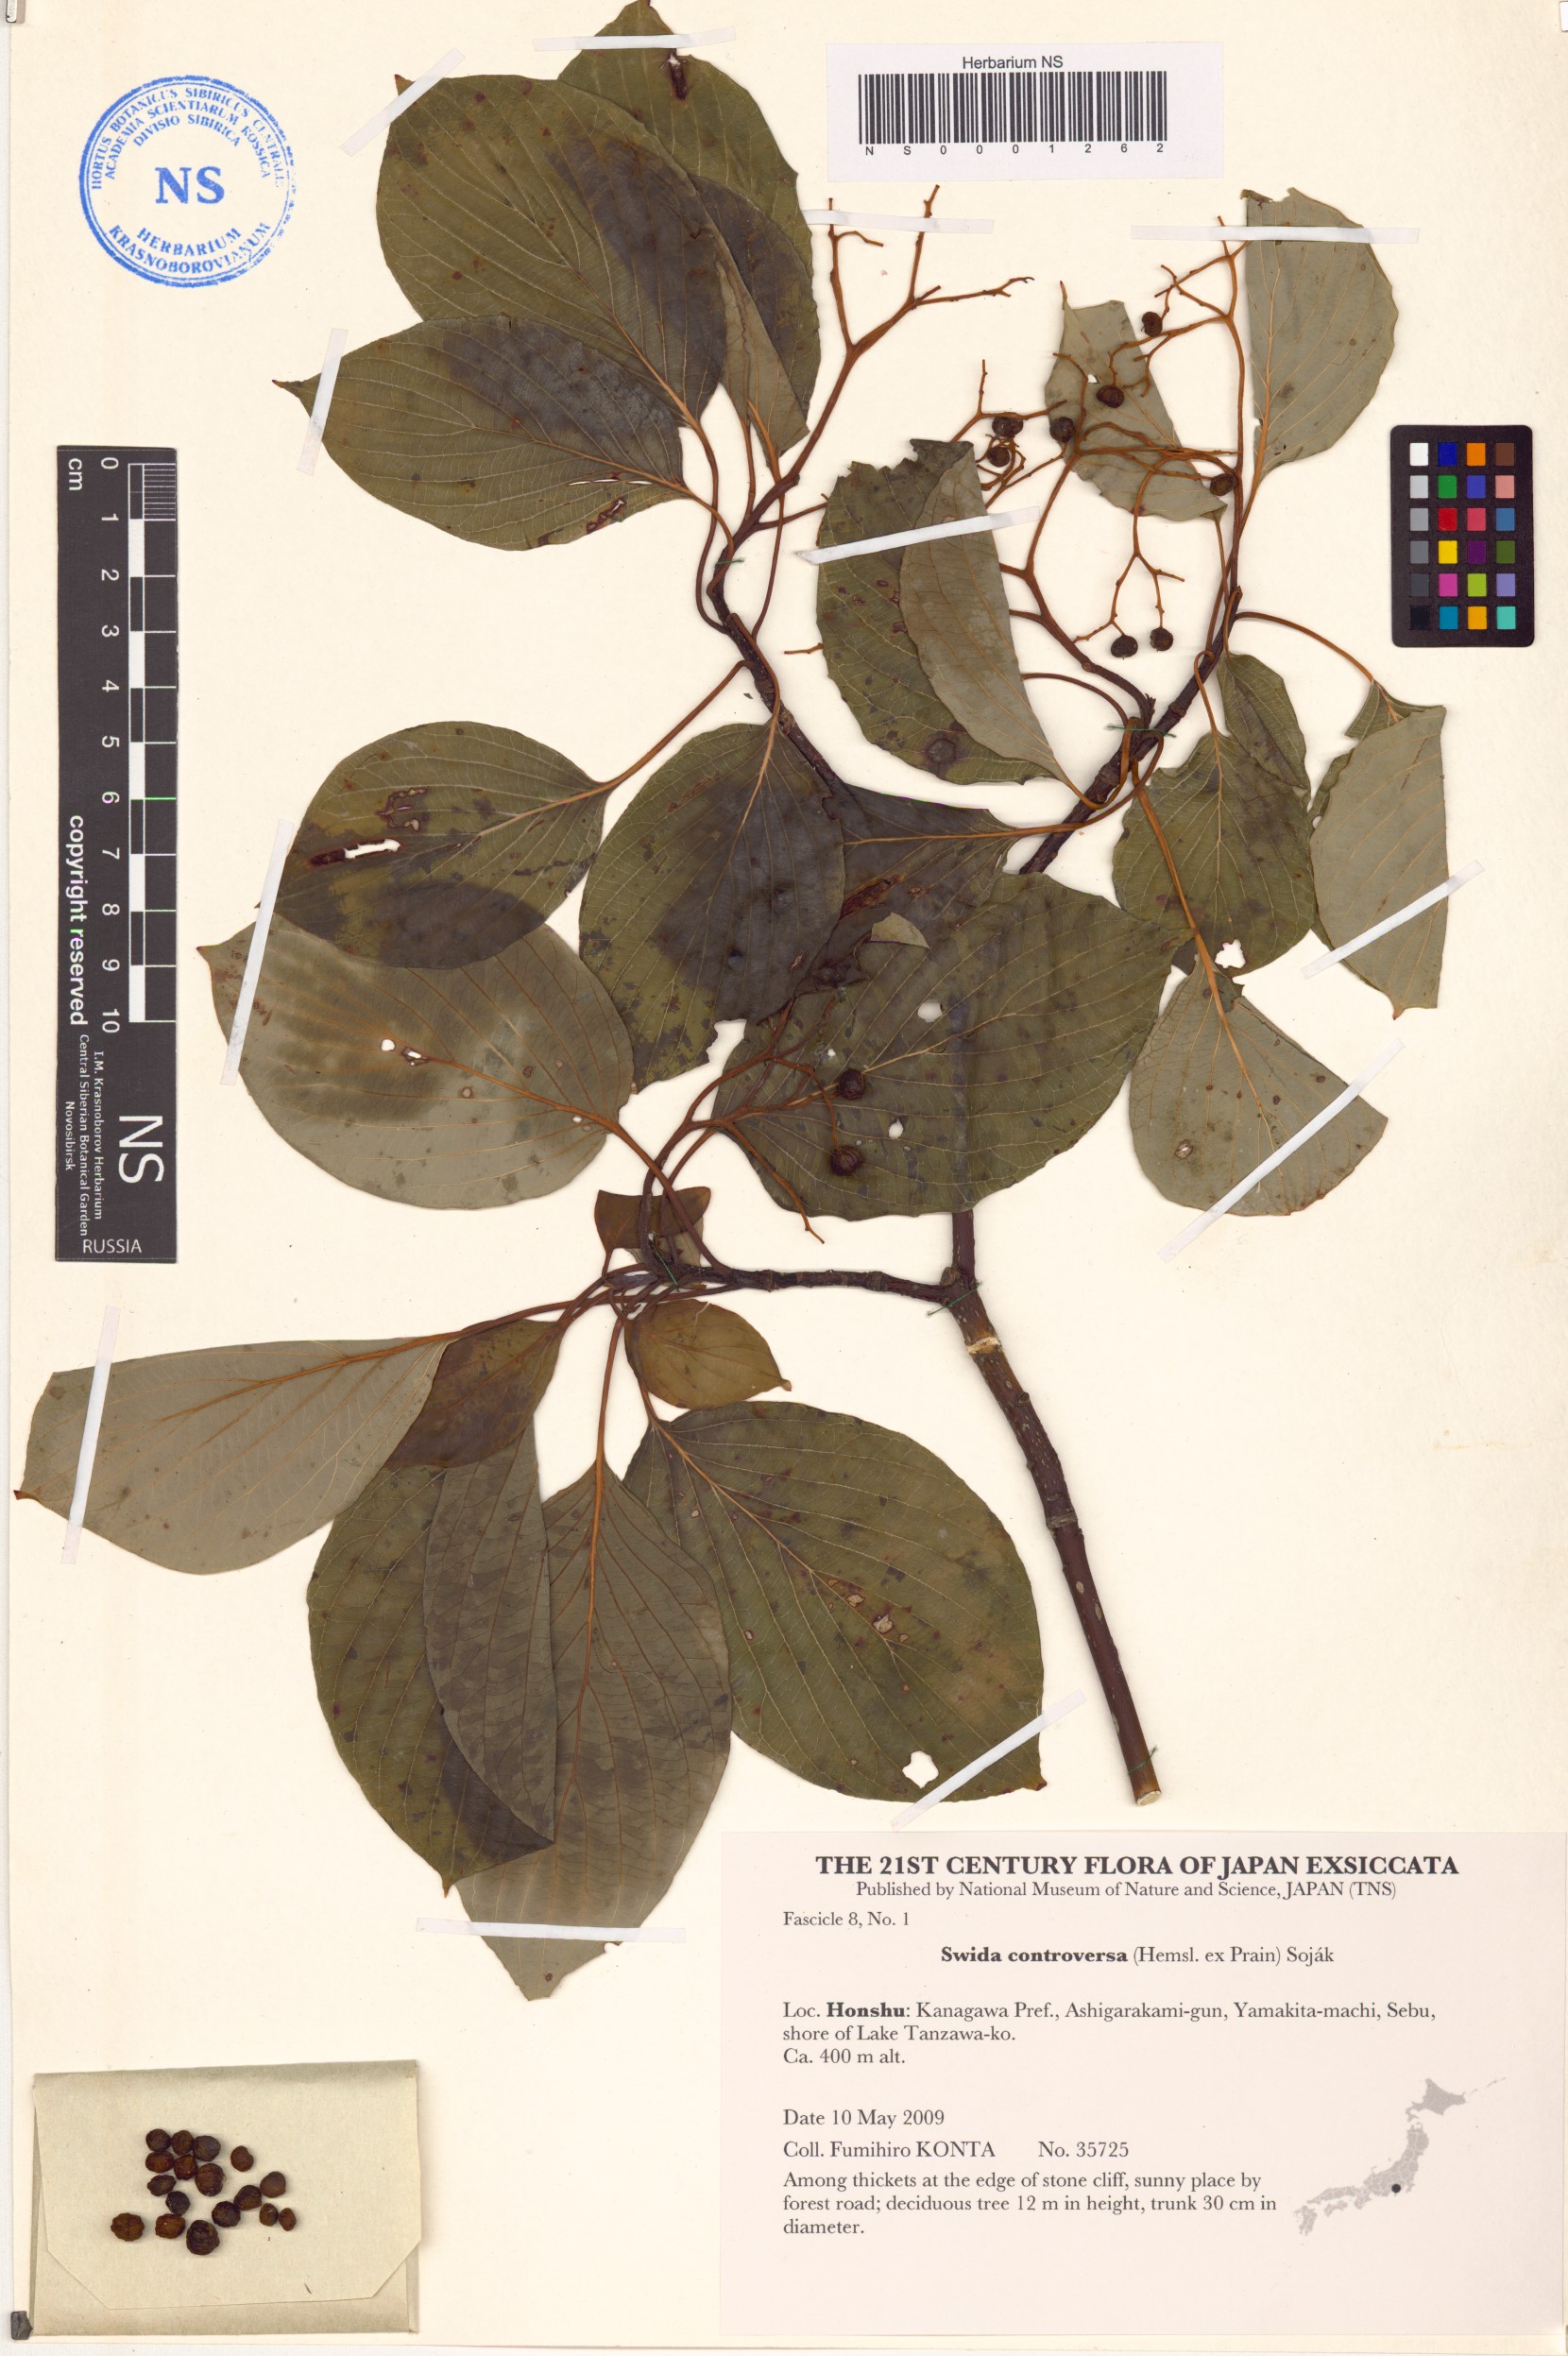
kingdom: Plantae
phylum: Tracheophyta
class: Magnoliopsida
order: Cornales
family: Cornaceae
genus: Cornus
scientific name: Cornus controversa
